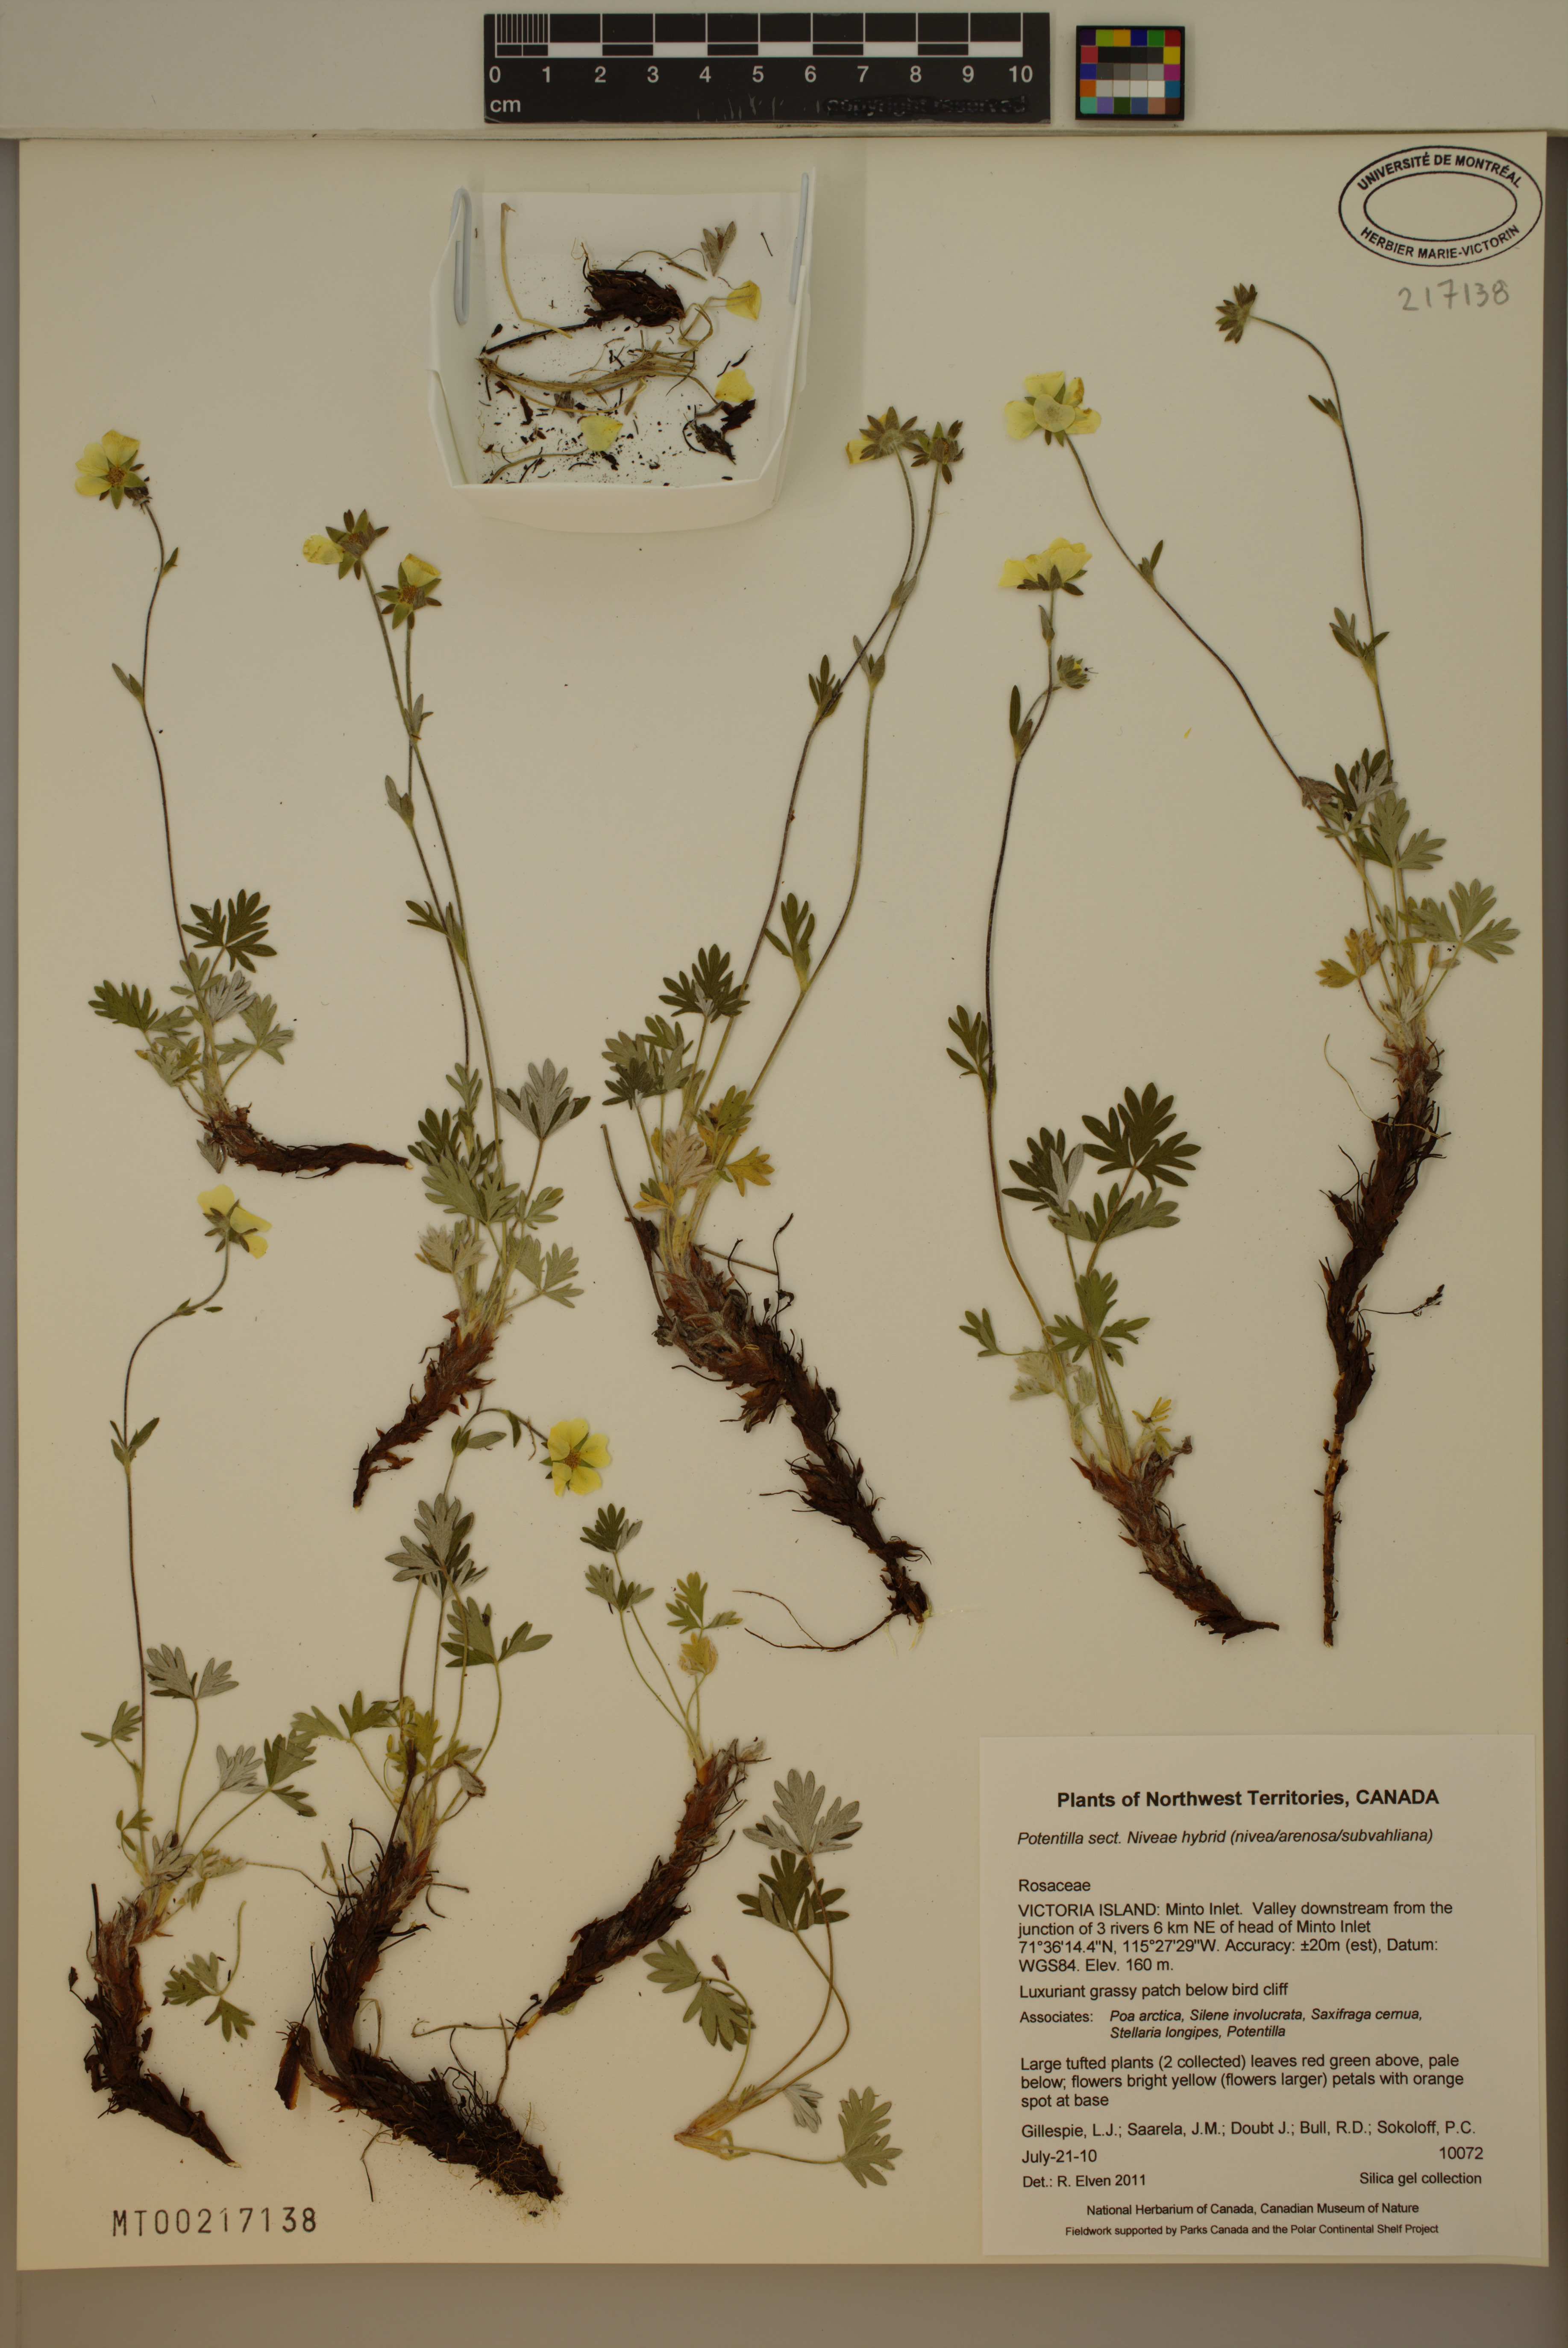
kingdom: Plantae
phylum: Tracheophyta
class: Magnoliopsida
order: Rosales
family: Rosaceae
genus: Potentilla
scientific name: Potentilla
